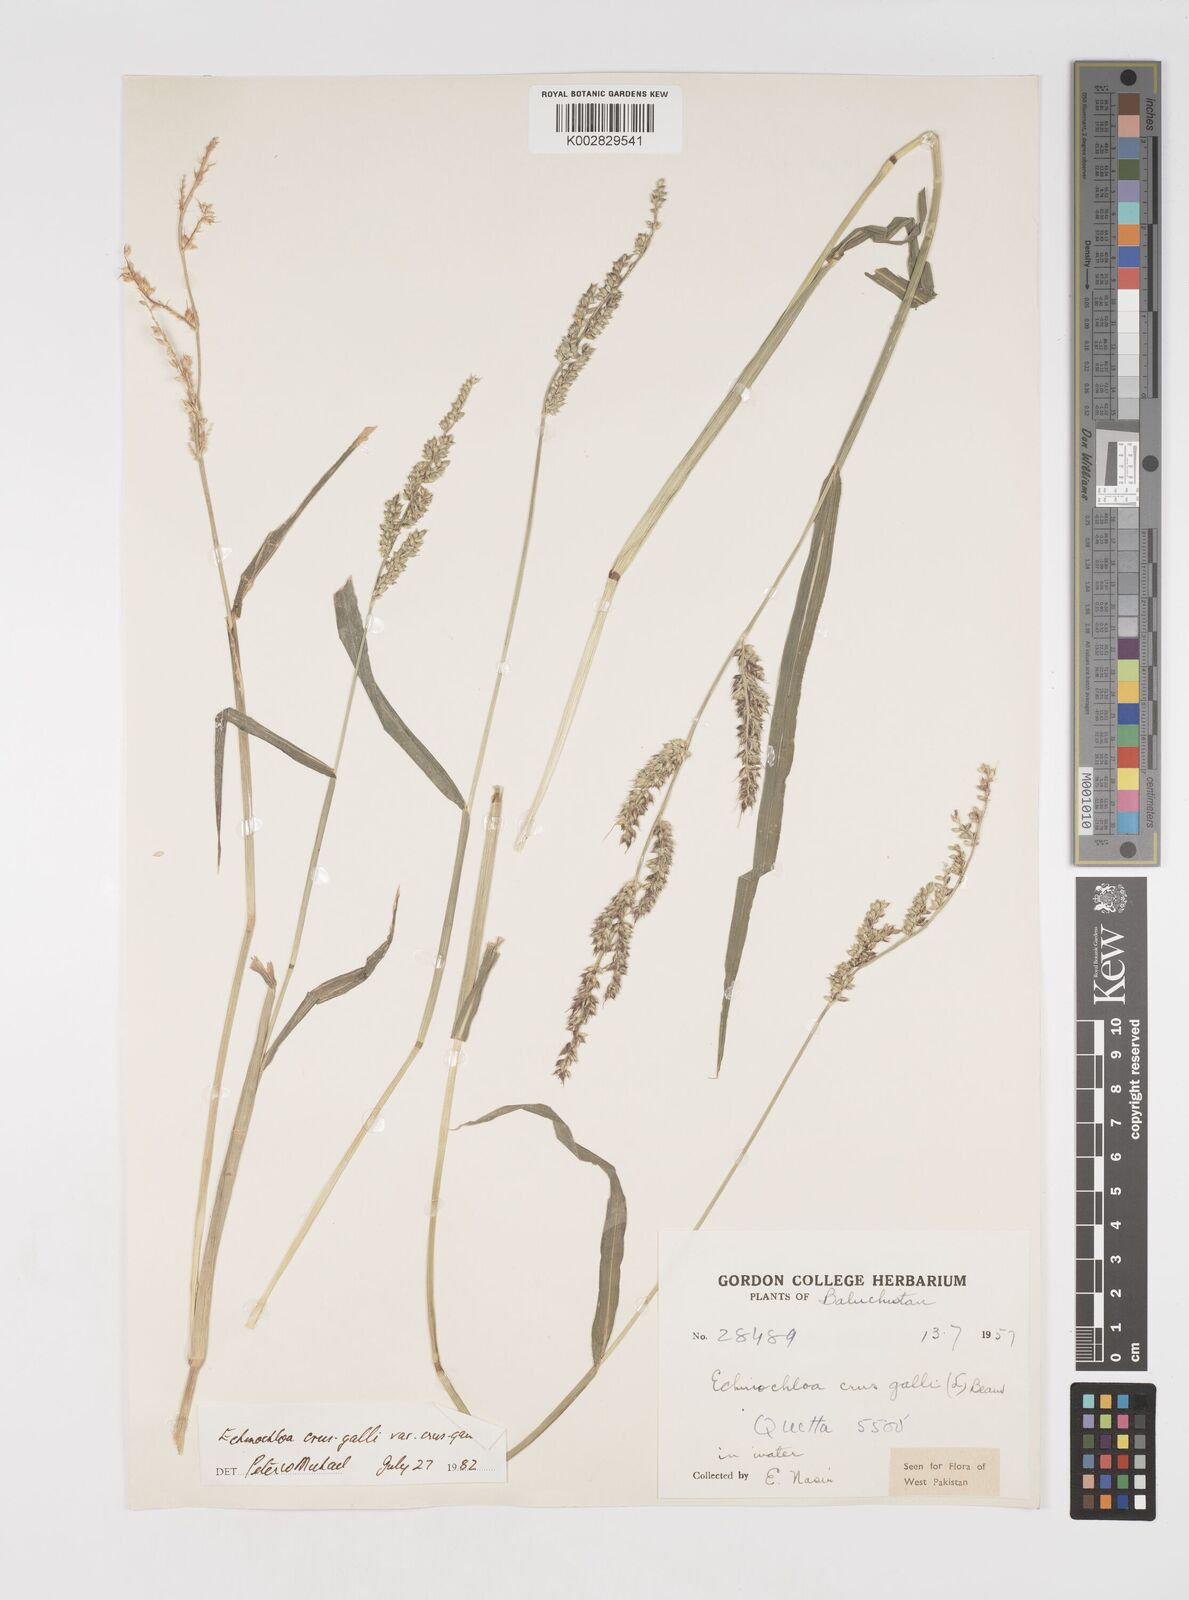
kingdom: Plantae
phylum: Tracheophyta
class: Liliopsida
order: Poales
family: Poaceae
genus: Echinochloa
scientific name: Echinochloa crus-galli
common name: Cockspur
